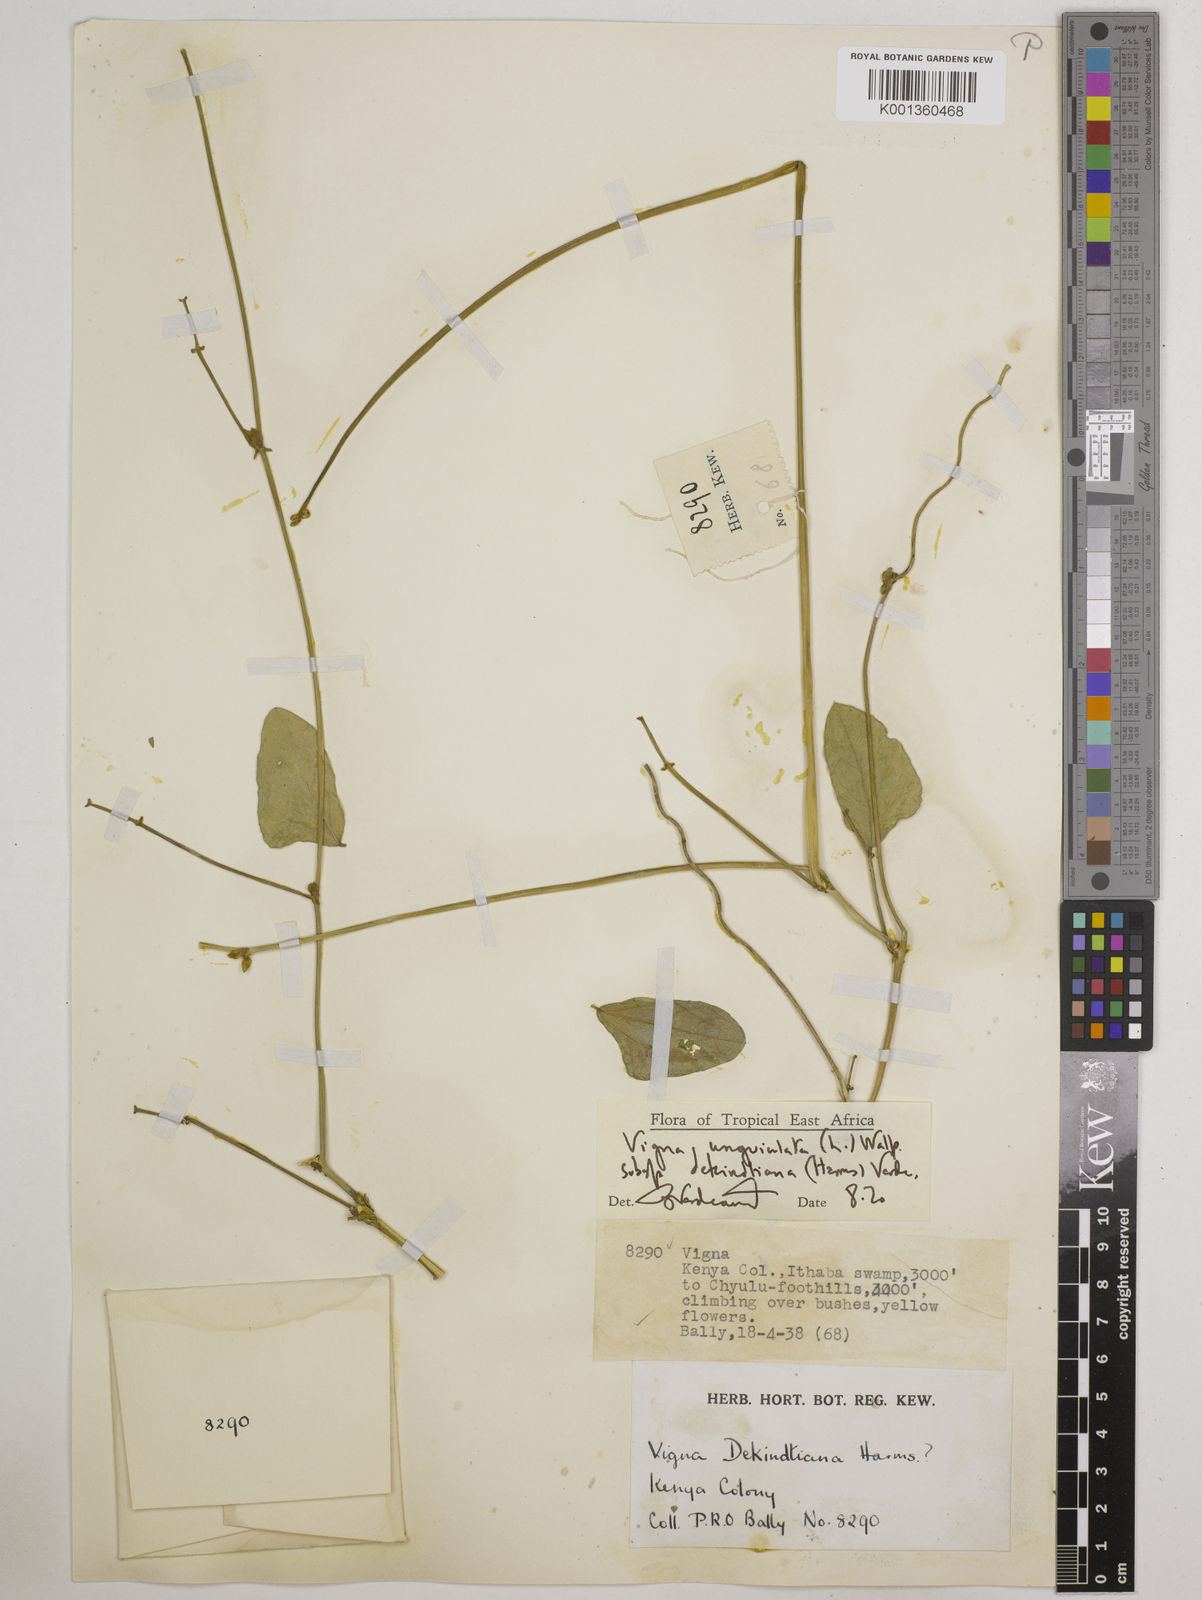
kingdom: Plantae
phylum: Tracheophyta
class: Magnoliopsida
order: Fabales
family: Fabaceae
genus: Vigna
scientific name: Vigna
